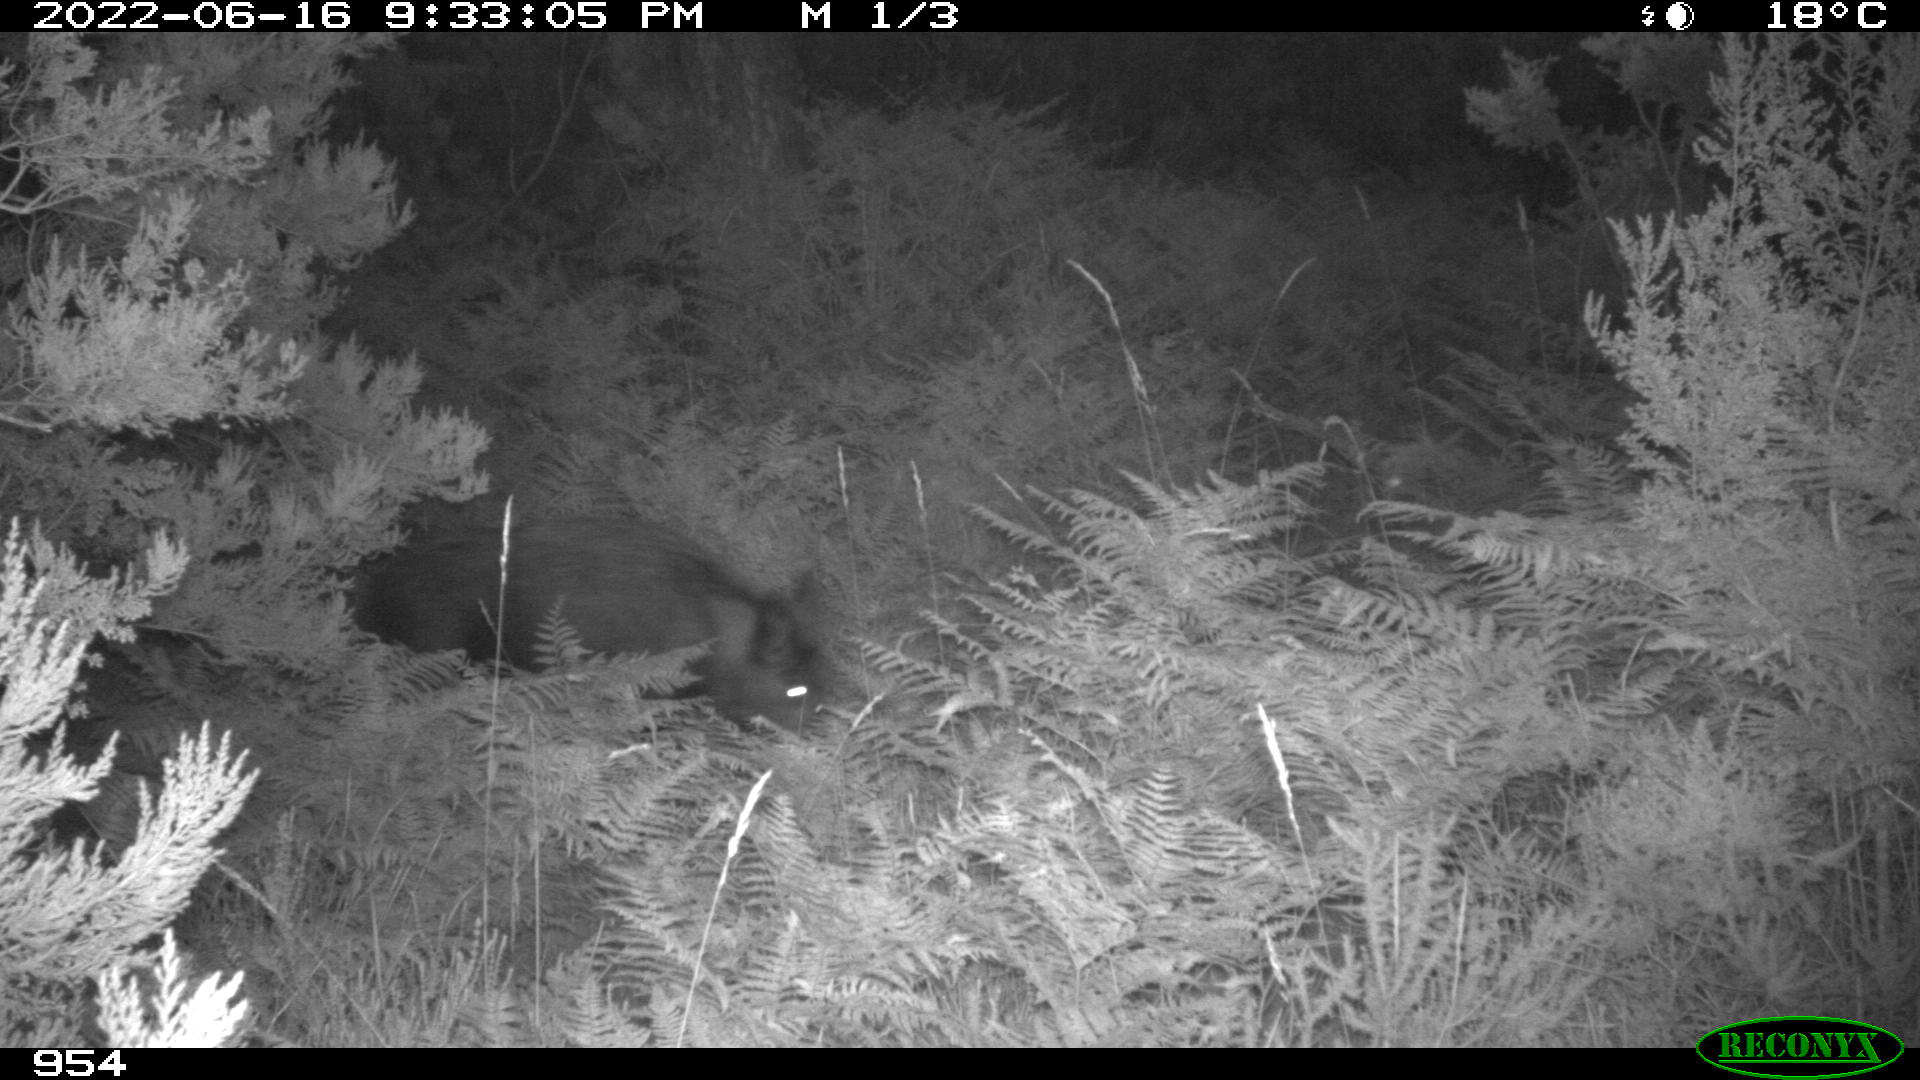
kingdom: Animalia
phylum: Chordata
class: Mammalia
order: Artiodactyla
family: Suidae
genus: Sus
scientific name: Sus scrofa
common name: Wild boar
